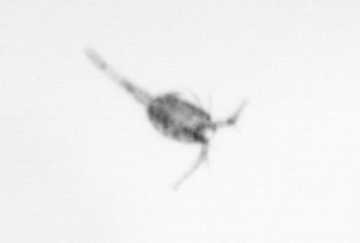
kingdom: Animalia
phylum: Arthropoda
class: Copepoda
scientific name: Copepoda
